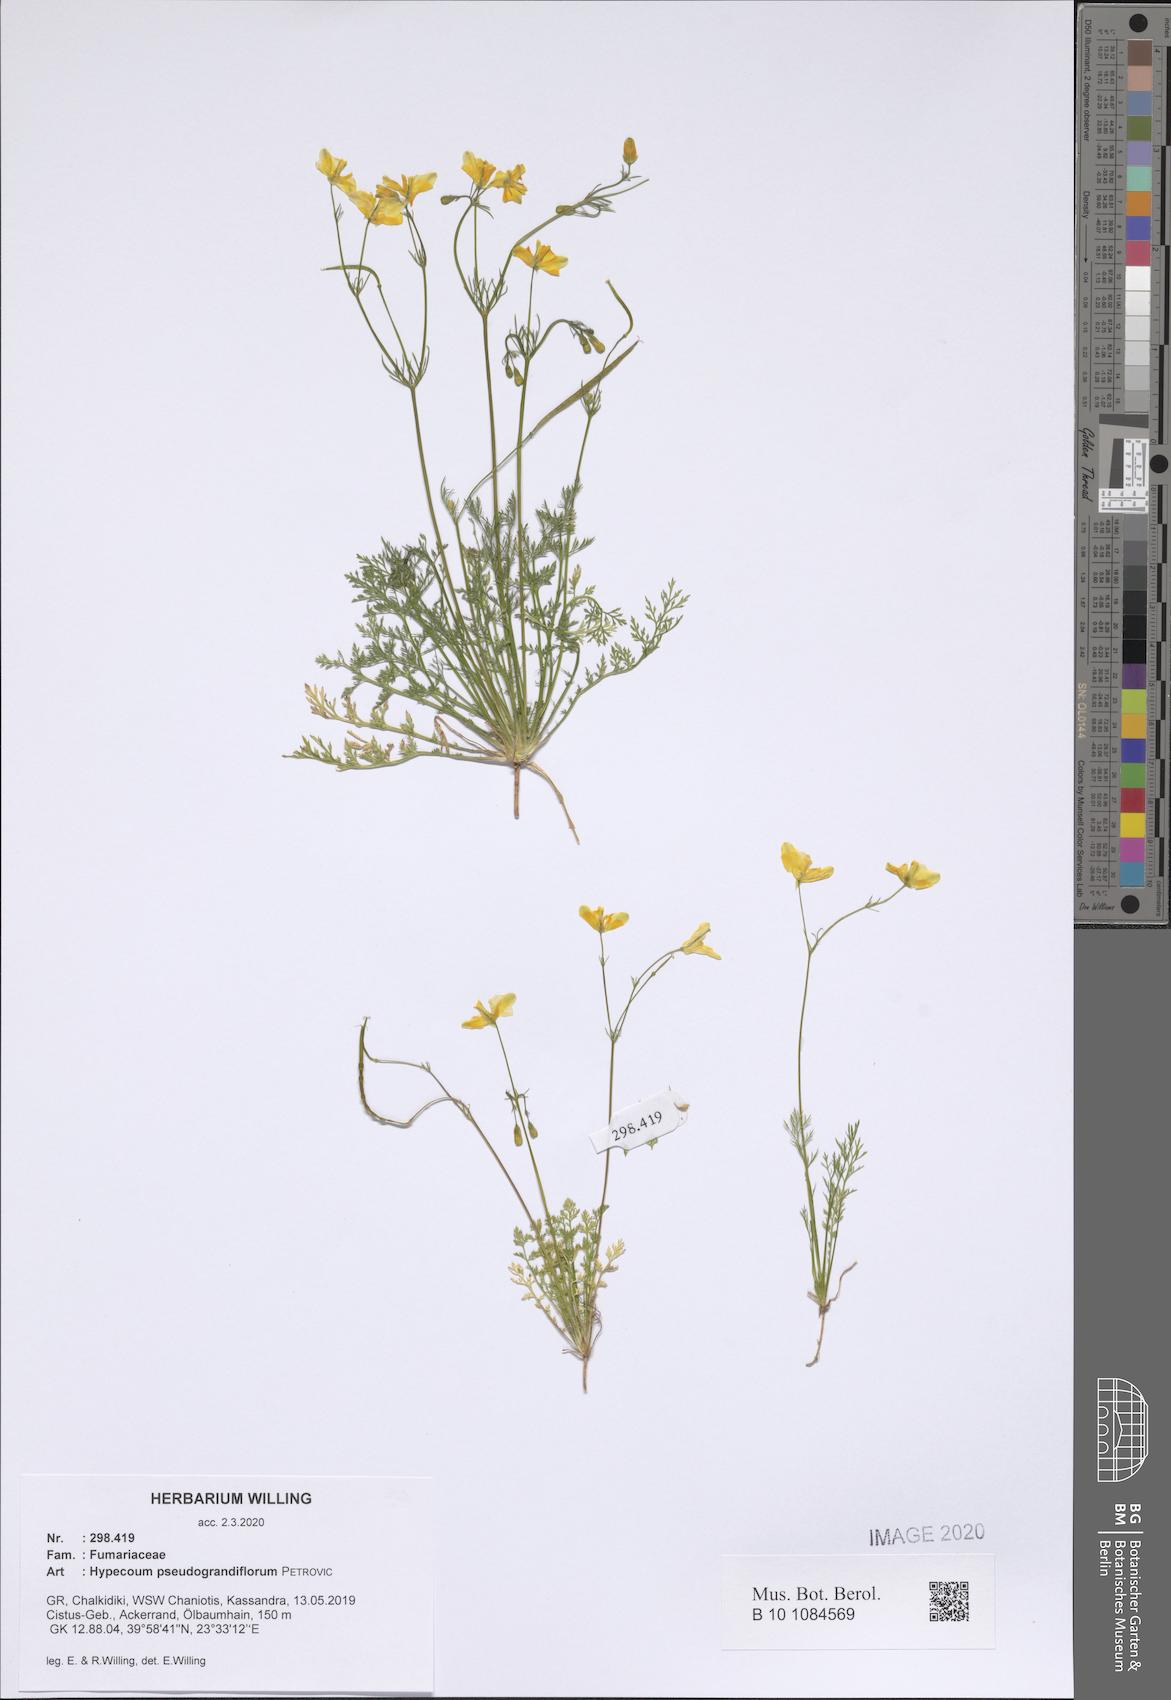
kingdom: Plantae
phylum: Tracheophyta
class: Magnoliopsida
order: Ranunculales
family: Papaveraceae
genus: Hypecoum
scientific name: Hypecoum pseudograndiflorum
